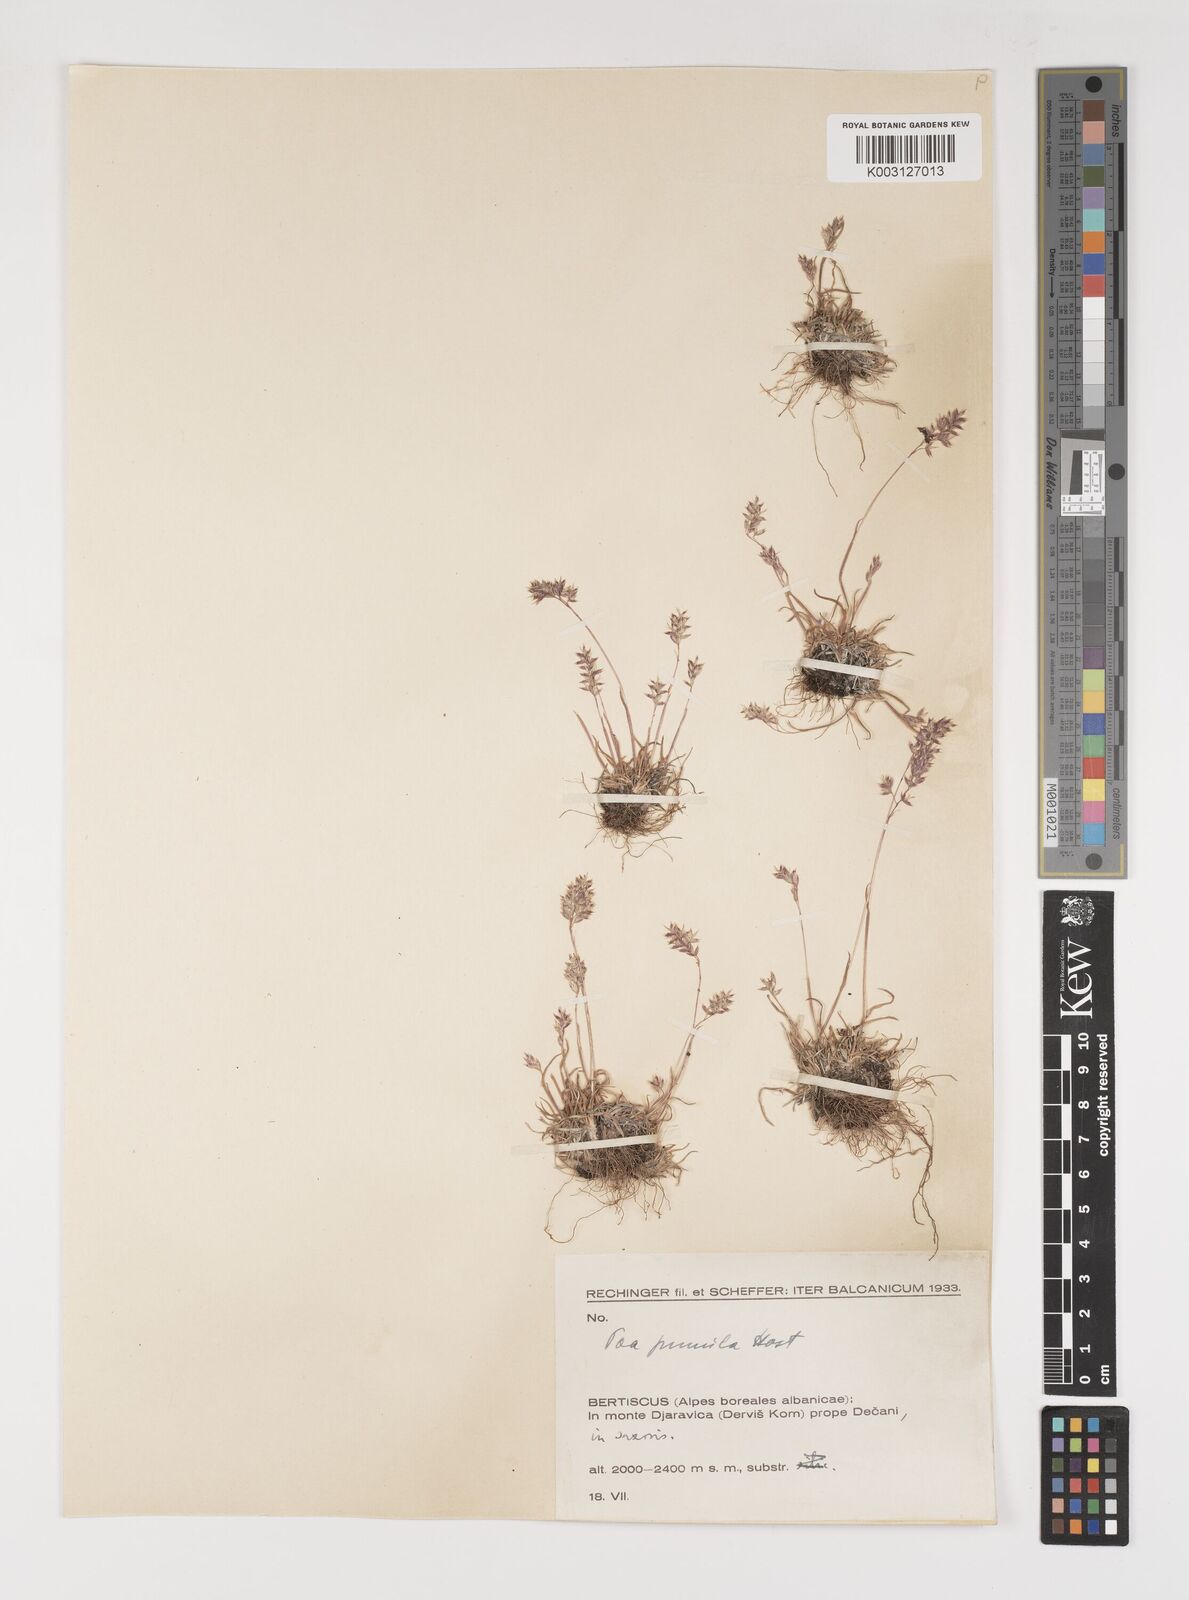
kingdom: Plantae
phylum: Tracheophyta
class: Liliopsida
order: Poales
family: Poaceae
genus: Poa
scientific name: Poa pumila
